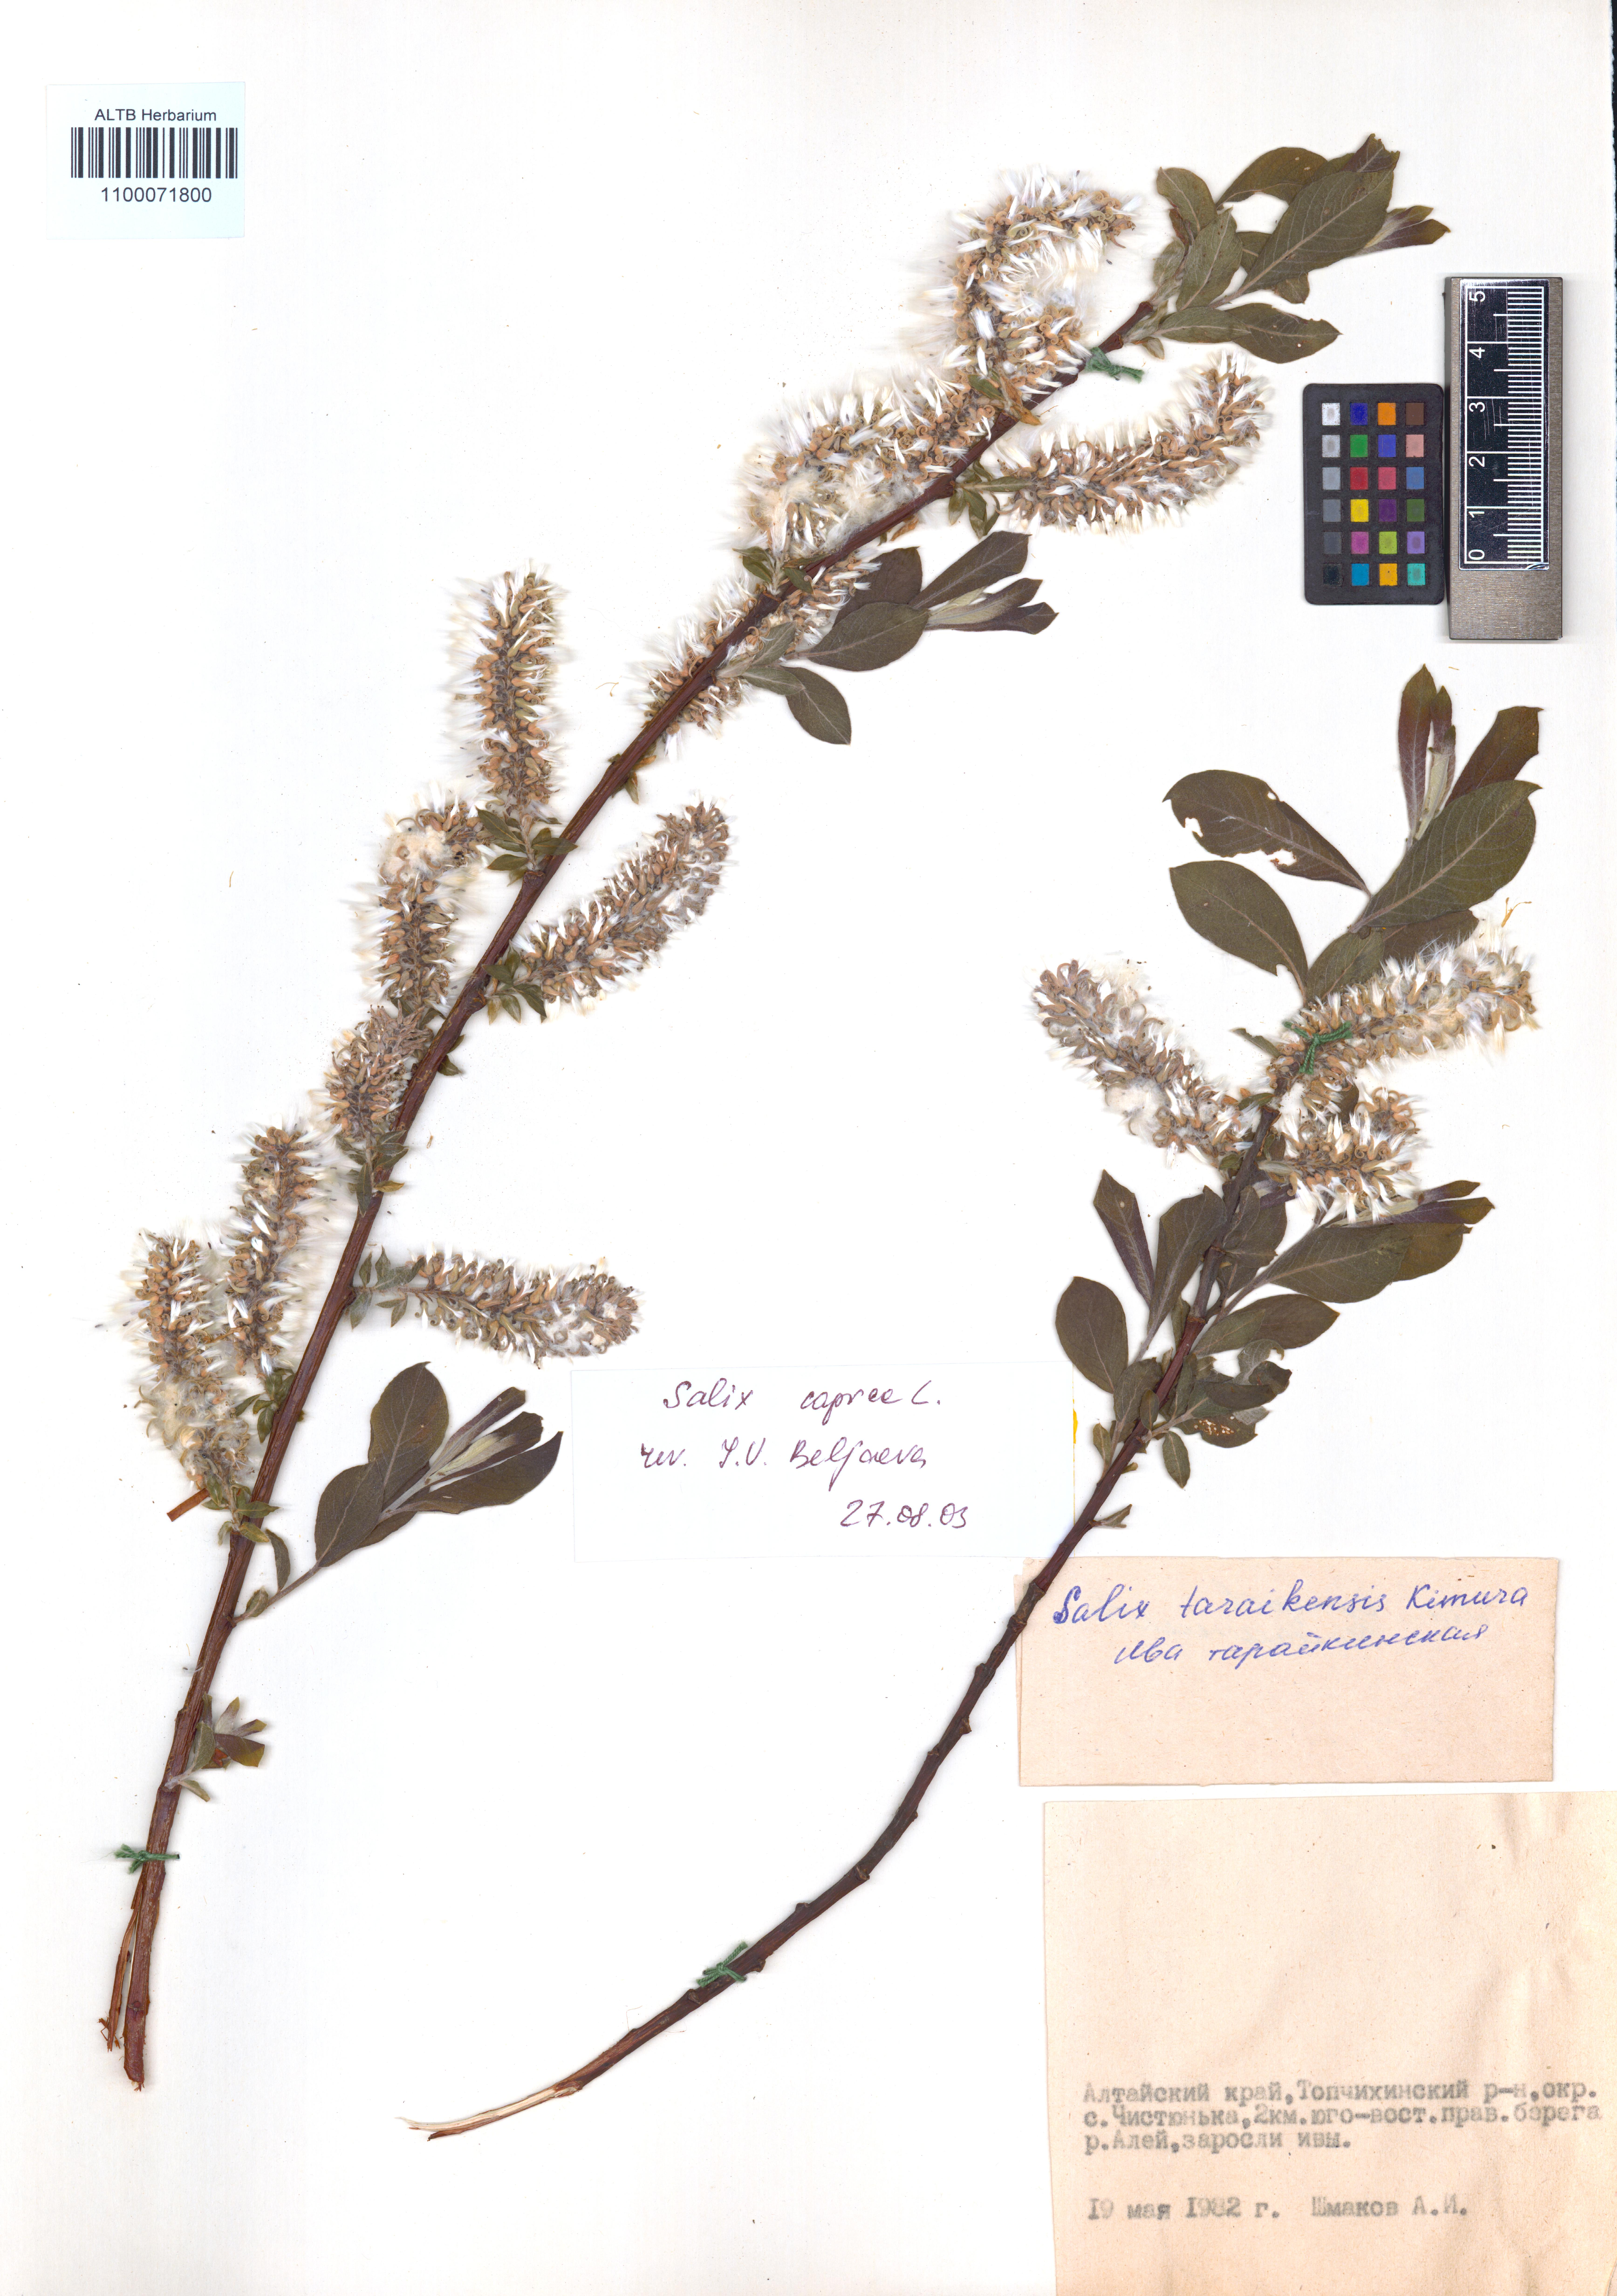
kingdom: Plantae
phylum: Tracheophyta
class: Magnoliopsida
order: Malpighiales
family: Salicaceae
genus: Salix
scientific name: Salix caprea
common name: Goat willow
